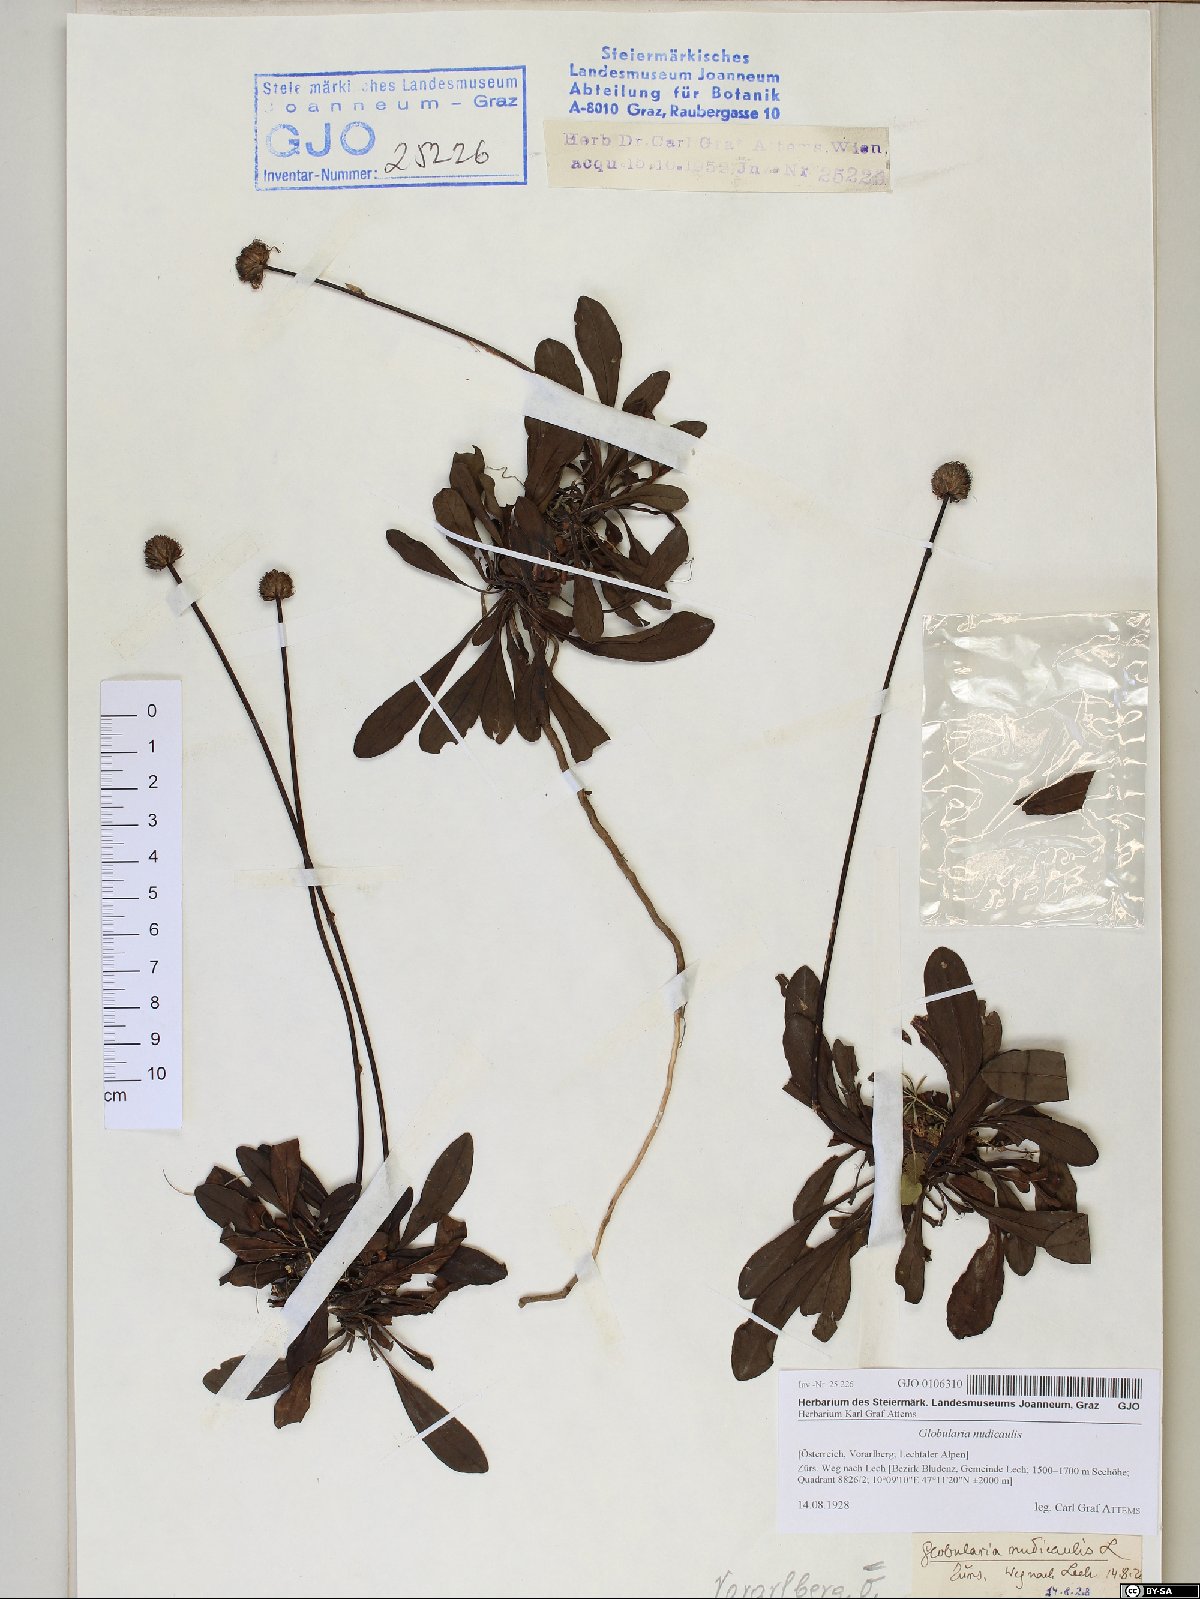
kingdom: Plantae
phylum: Tracheophyta
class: Magnoliopsida
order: Lamiales
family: Plantaginaceae
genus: Globularia
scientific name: Globularia nudicaulis
